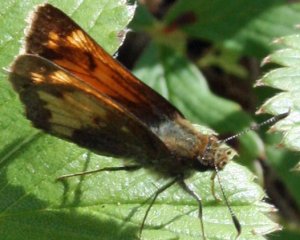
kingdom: Animalia
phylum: Arthropoda
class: Insecta
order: Lepidoptera
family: Hesperiidae
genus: Lon
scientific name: Lon hobomok
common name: Hobomok Skipper
